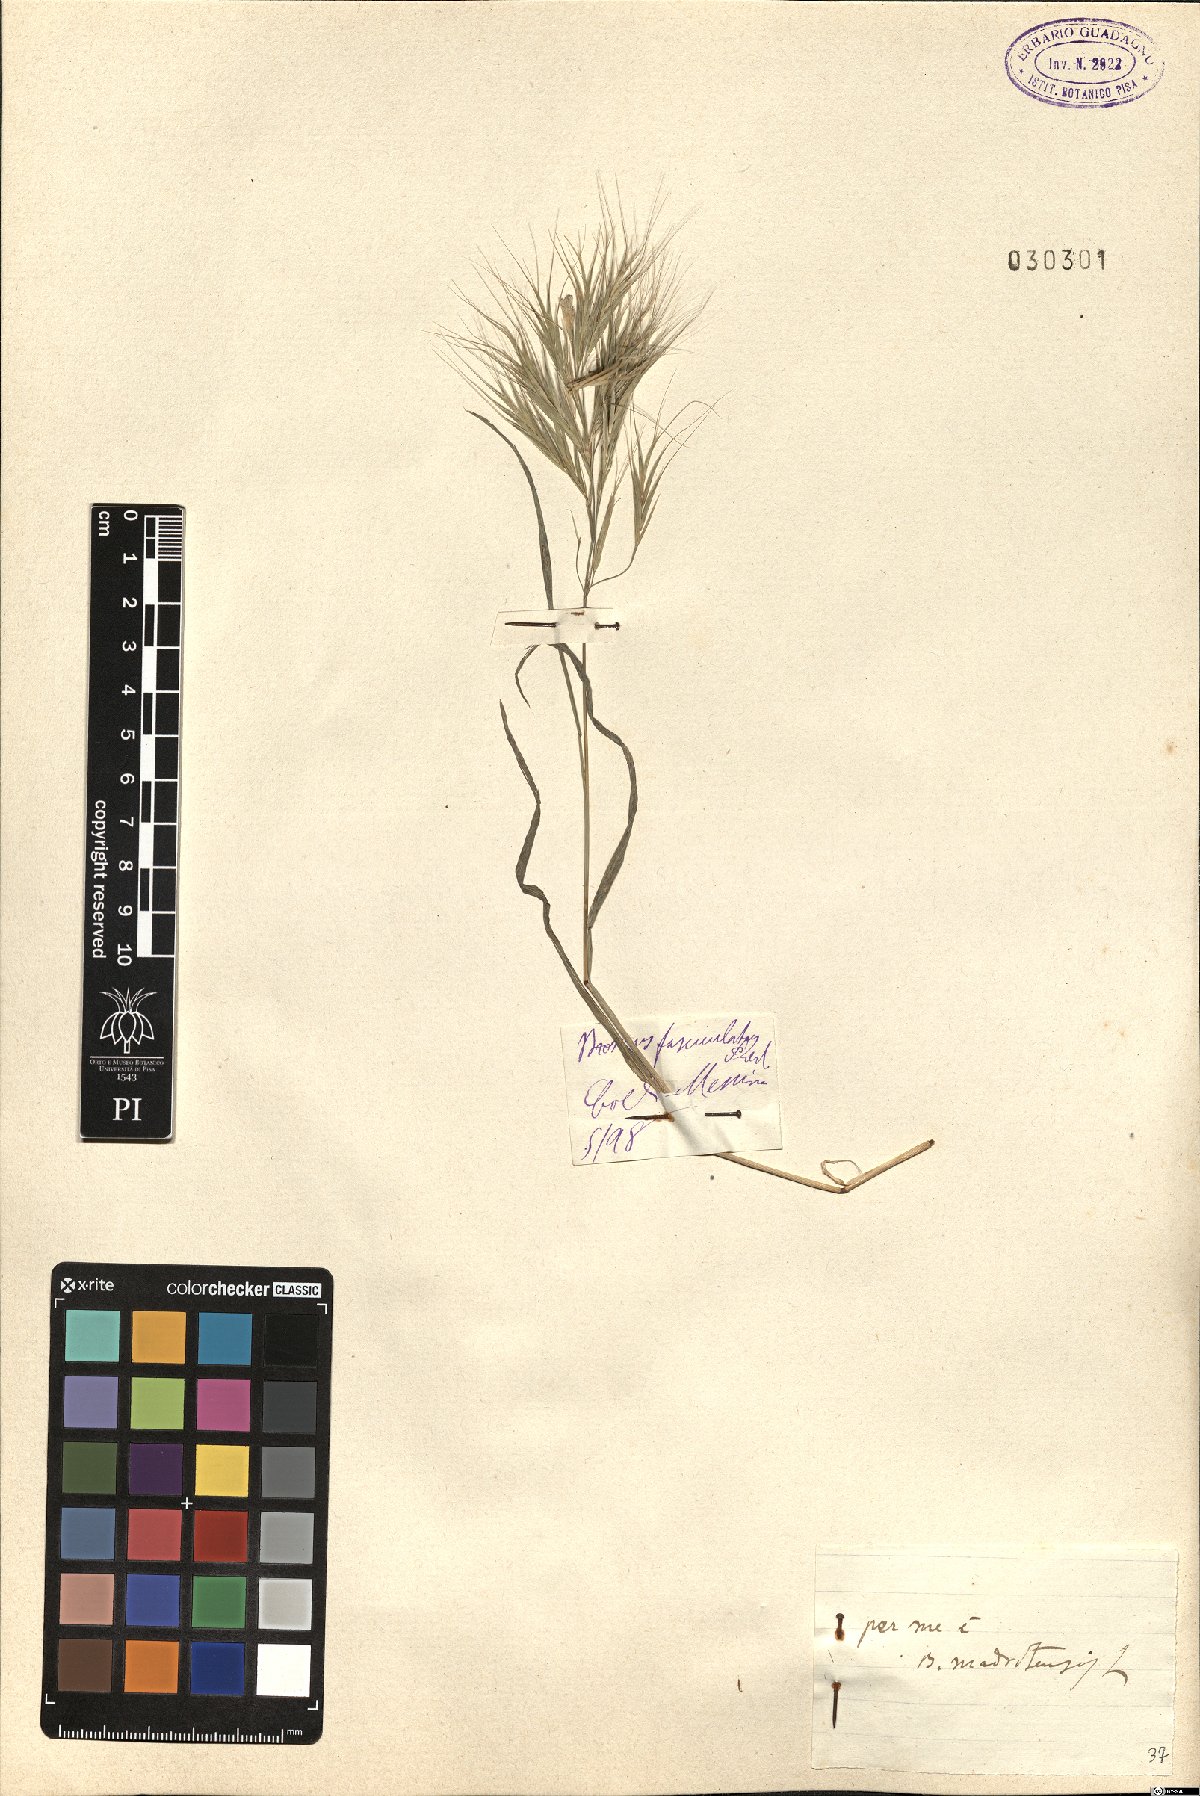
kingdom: Plantae
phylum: Tracheophyta
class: Liliopsida
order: Poales
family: Poaceae
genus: Bromus
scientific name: Bromus madritensis
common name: Compact brome
